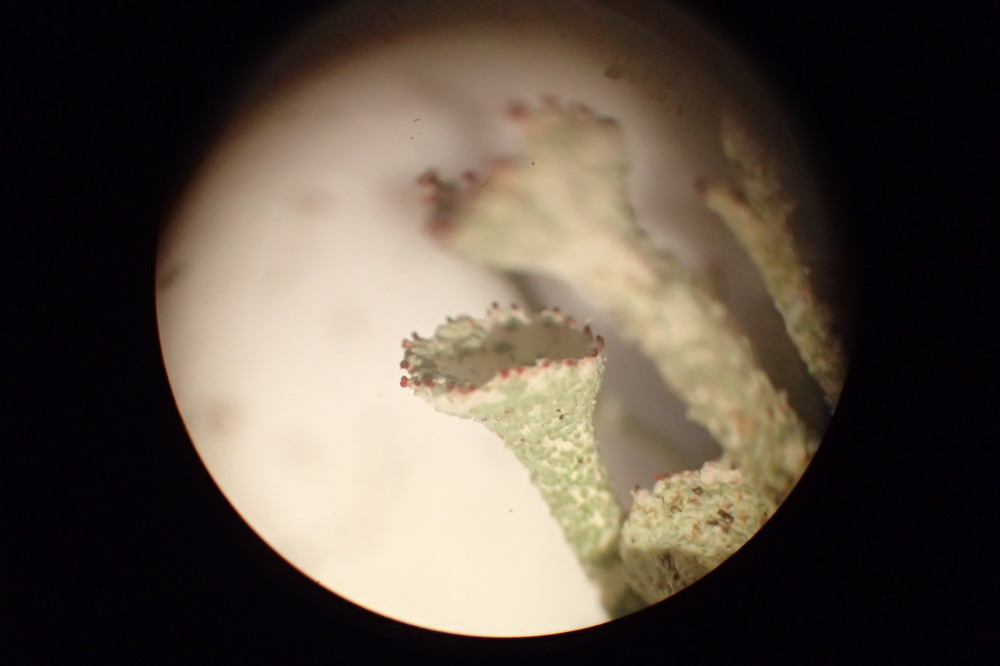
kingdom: Fungi
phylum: Ascomycota
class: Lecanoromycetes
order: Lecanorales
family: Cladoniaceae
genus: Cladonia
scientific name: Cladonia diversa
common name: rød bægerlav
